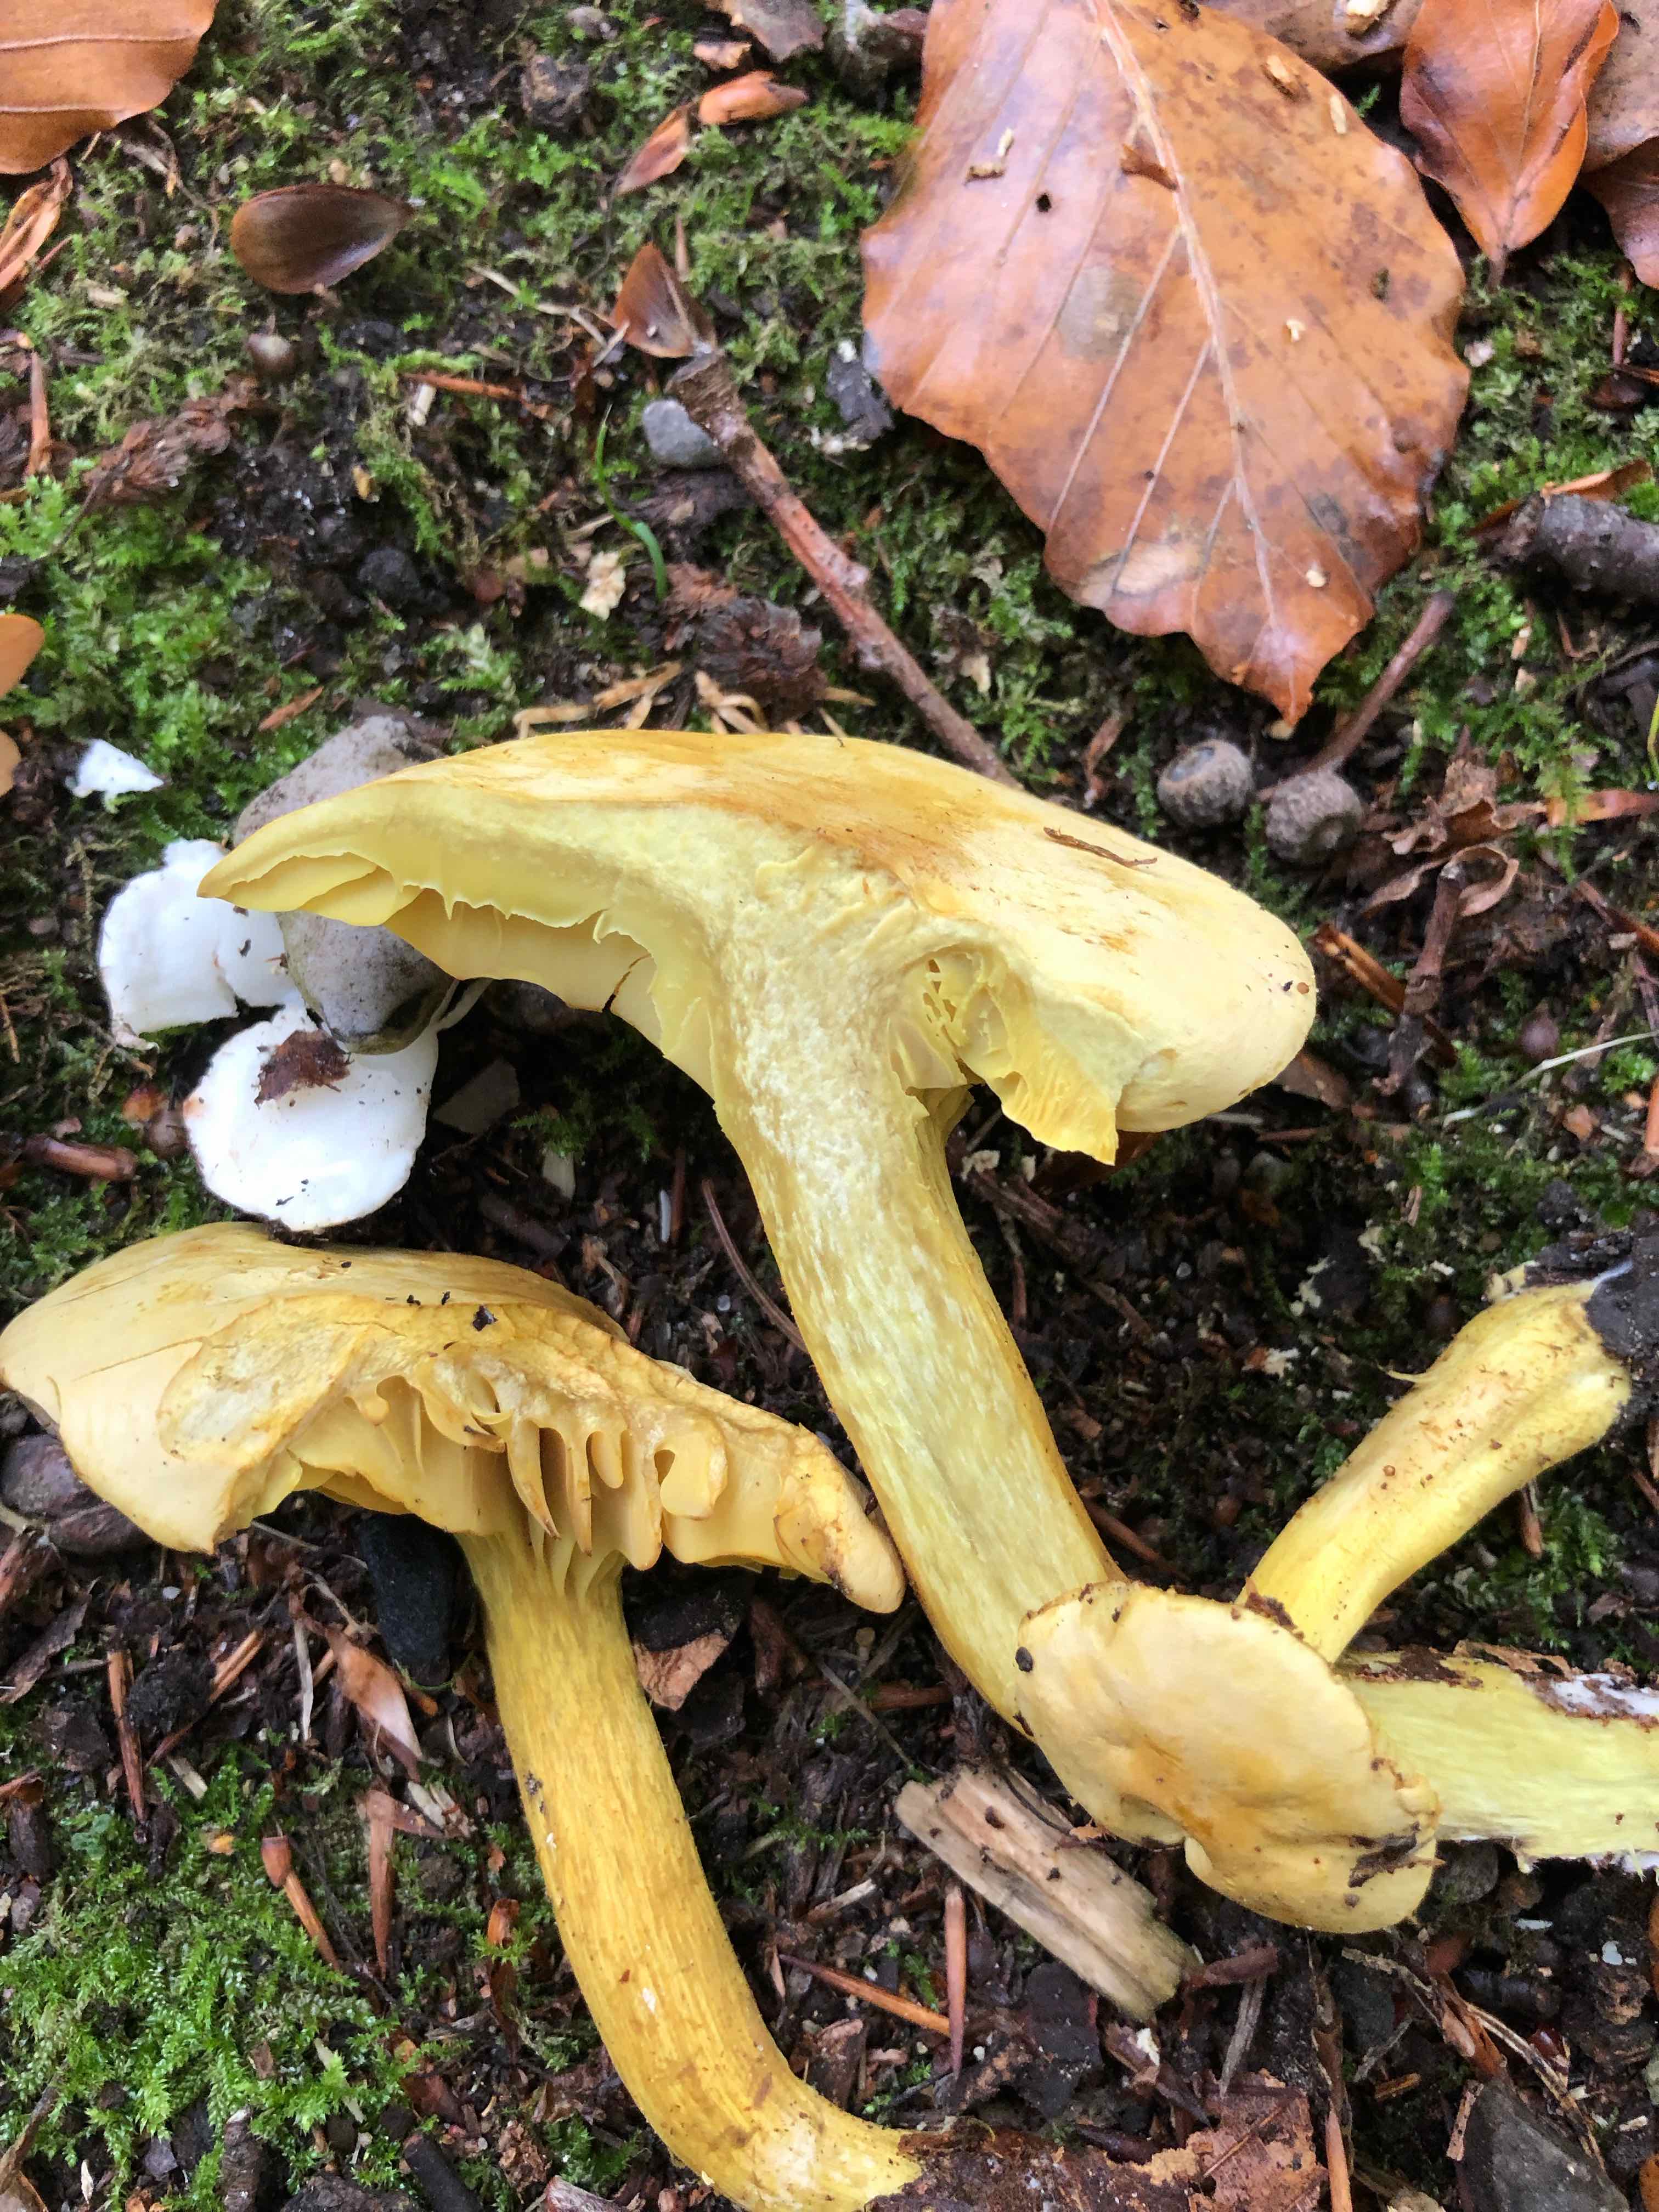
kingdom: Fungi
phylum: Basidiomycota
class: Agaricomycetes
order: Agaricales
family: Tricholomataceae
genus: Tricholoma
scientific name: Tricholoma sulphureum
